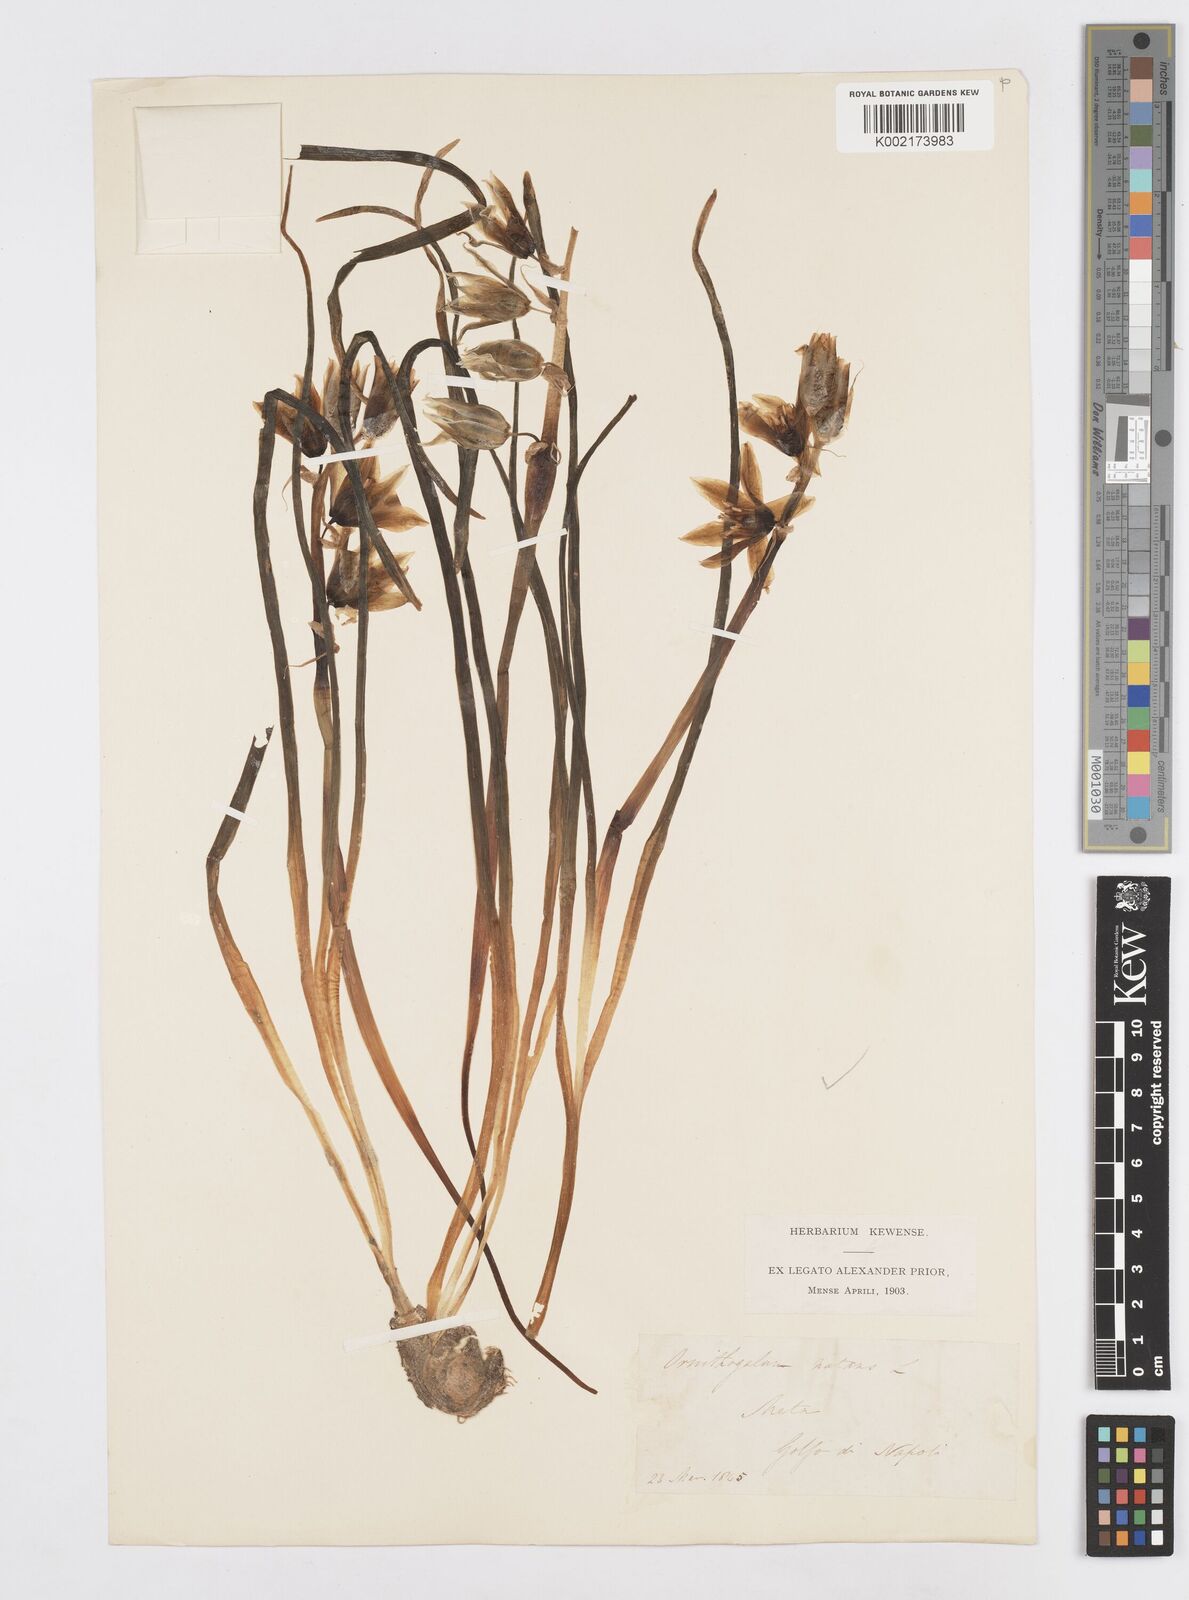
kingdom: Plantae
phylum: Tracheophyta
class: Liliopsida
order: Asparagales
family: Asparagaceae
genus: Ornithogalum
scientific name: Ornithogalum nutans
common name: Drooping star-of-bethlehem
